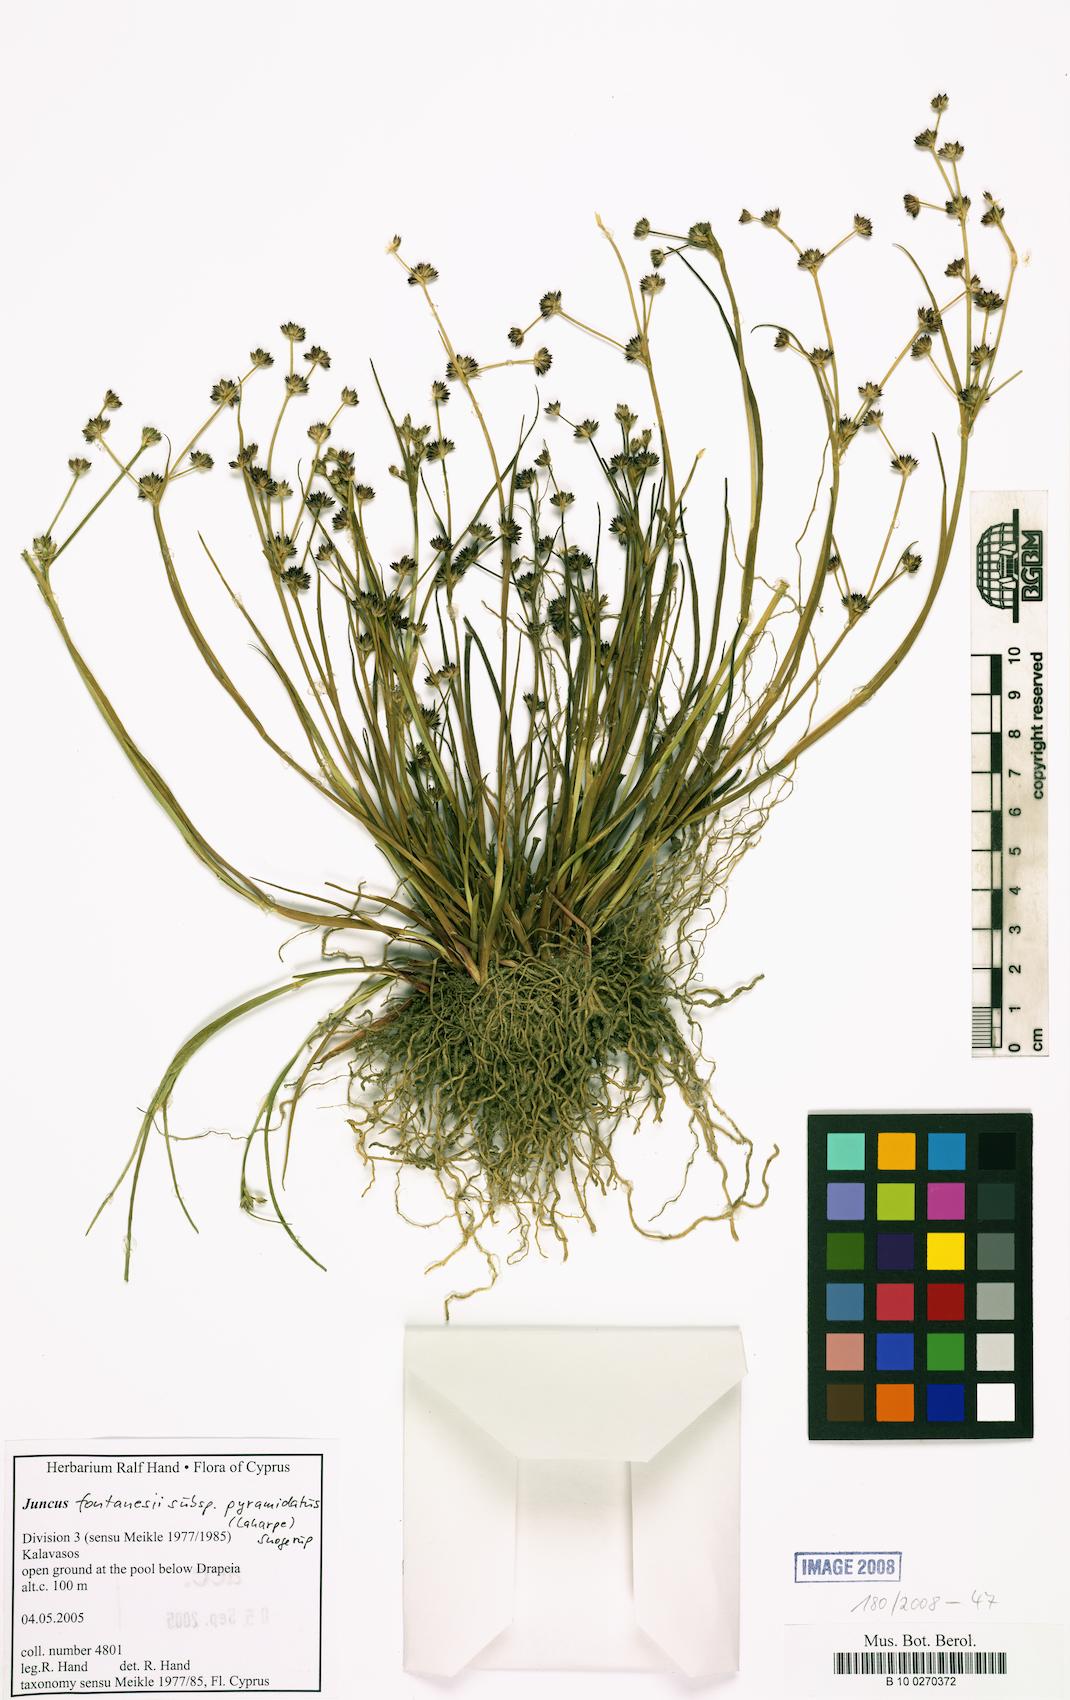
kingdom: Plantae
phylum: Tracheophyta
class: Liliopsida
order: Poales
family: Juncaceae
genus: Juncus
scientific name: Juncus fontanesii
